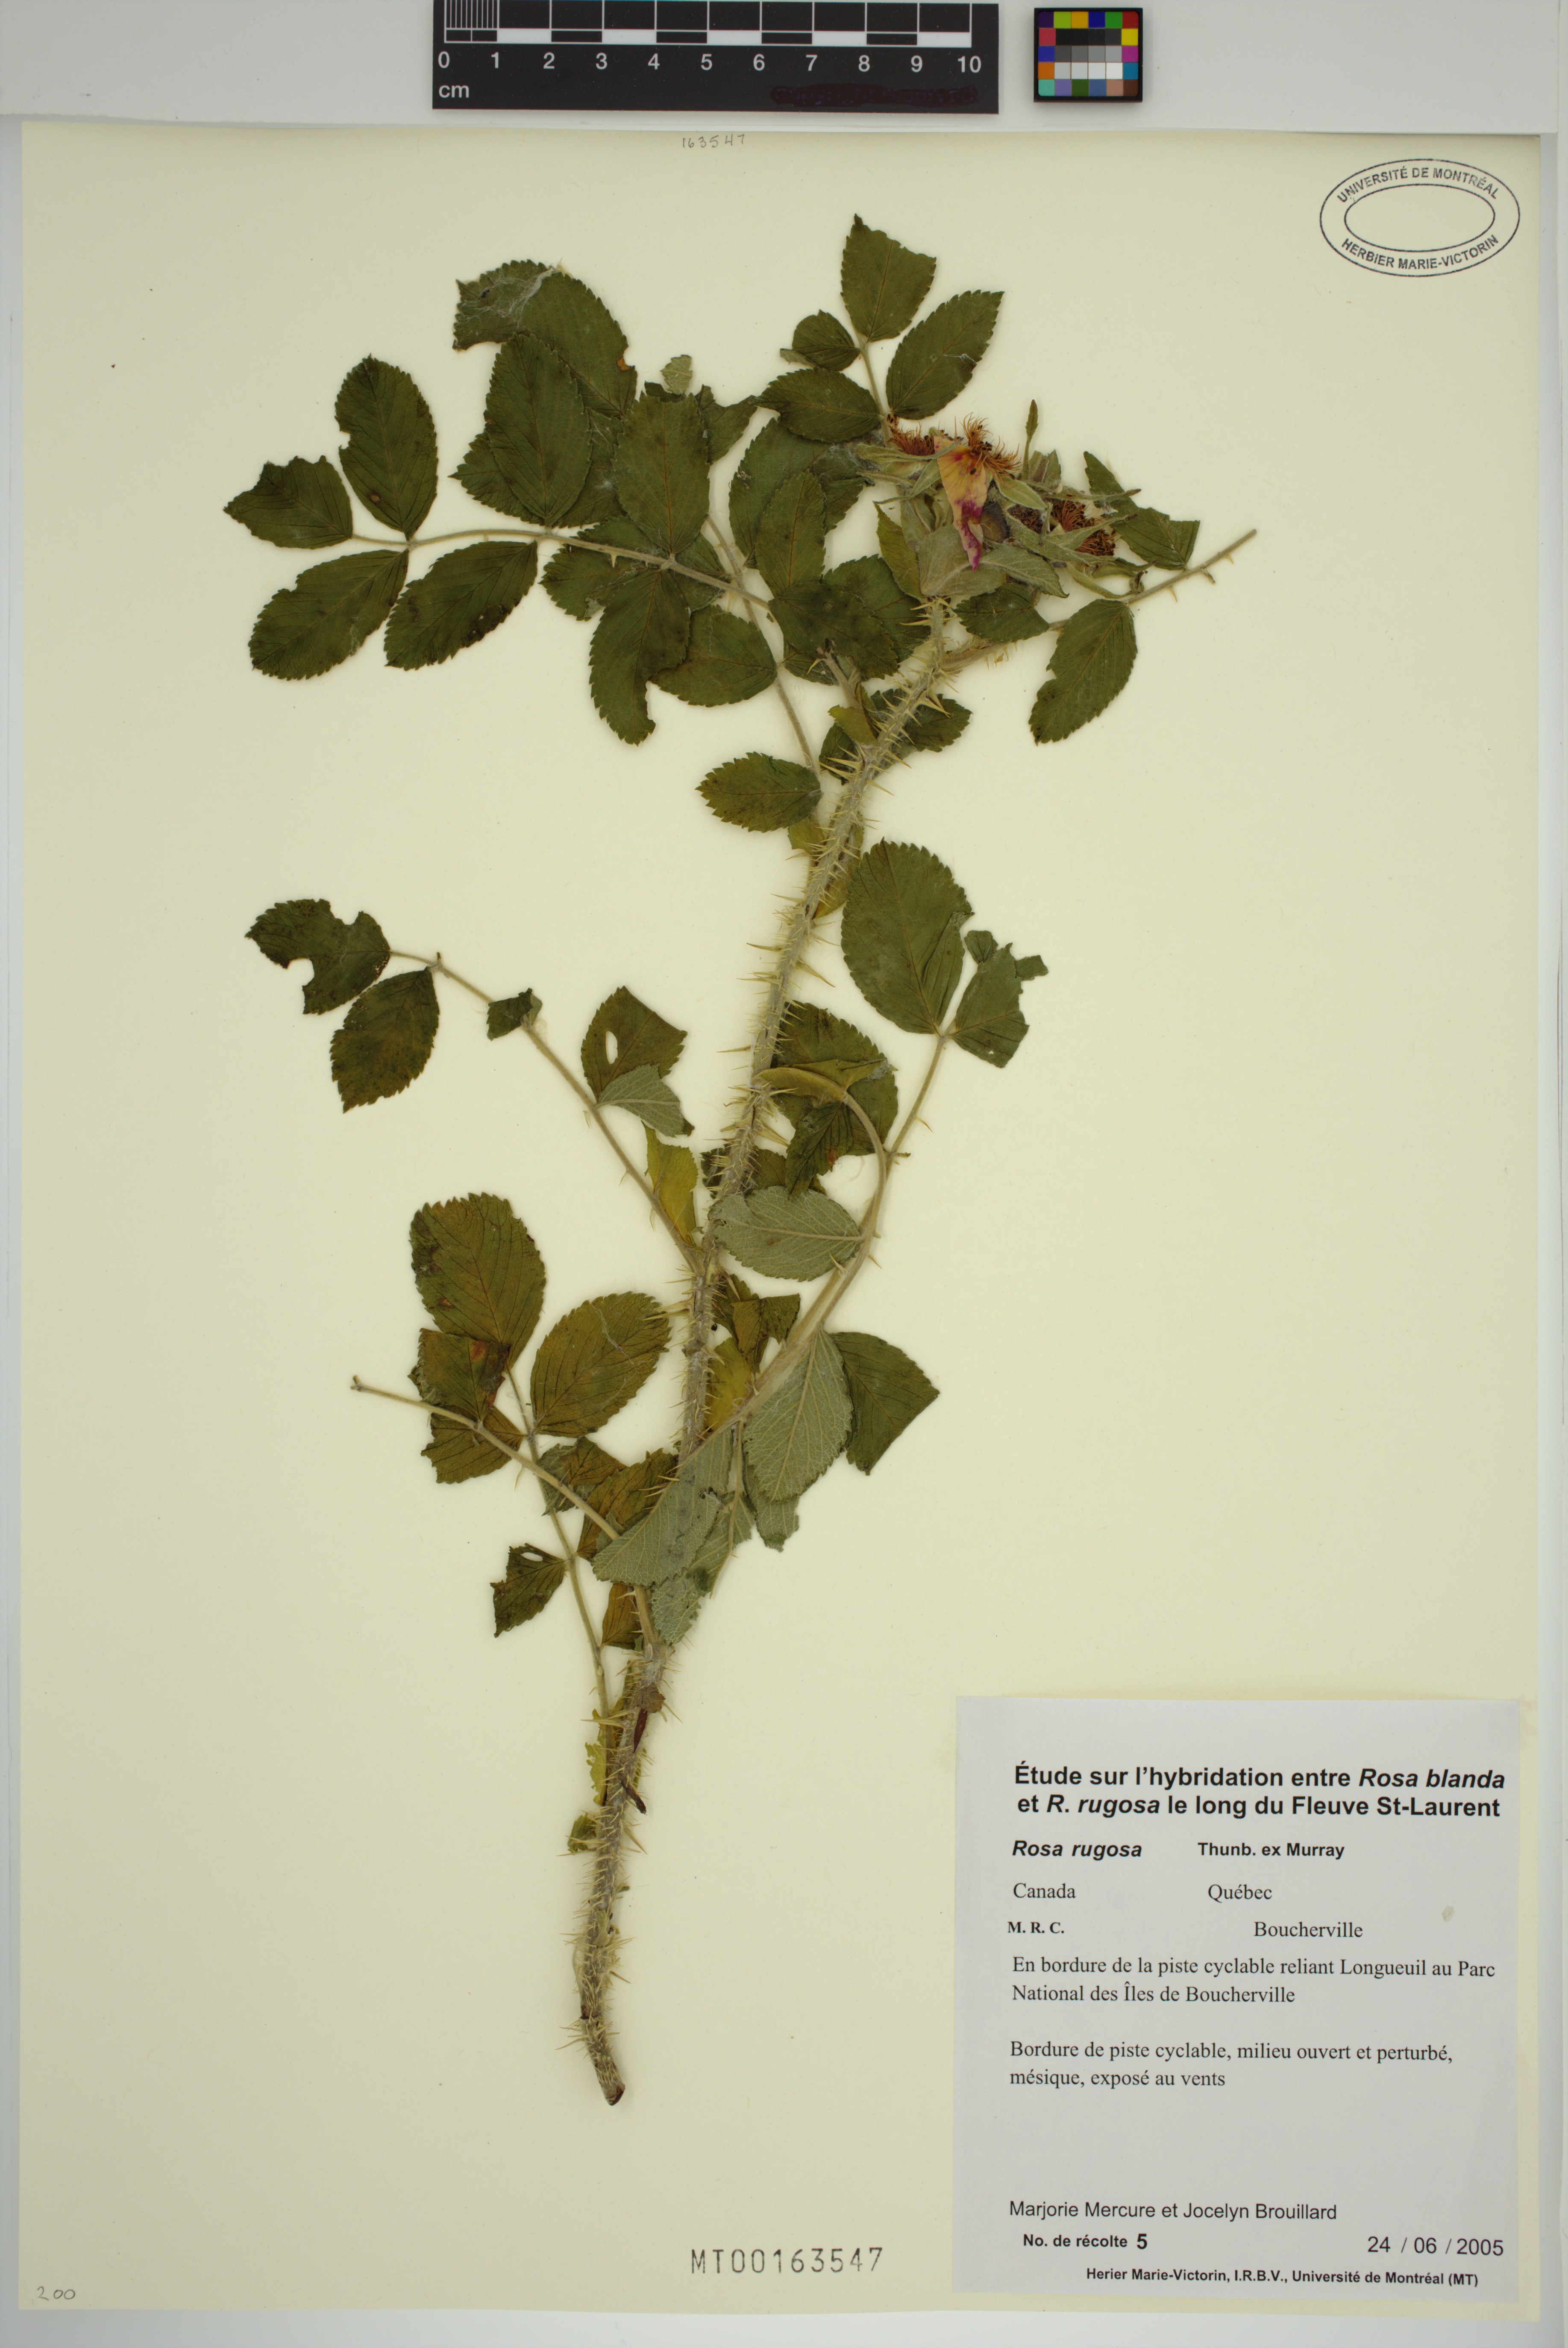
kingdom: Plantae
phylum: Tracheophyta
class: Magnoliopsida
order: Rosales
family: Rosaceae
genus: Rosa
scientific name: Rosa rugosa
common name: Japanese rose
